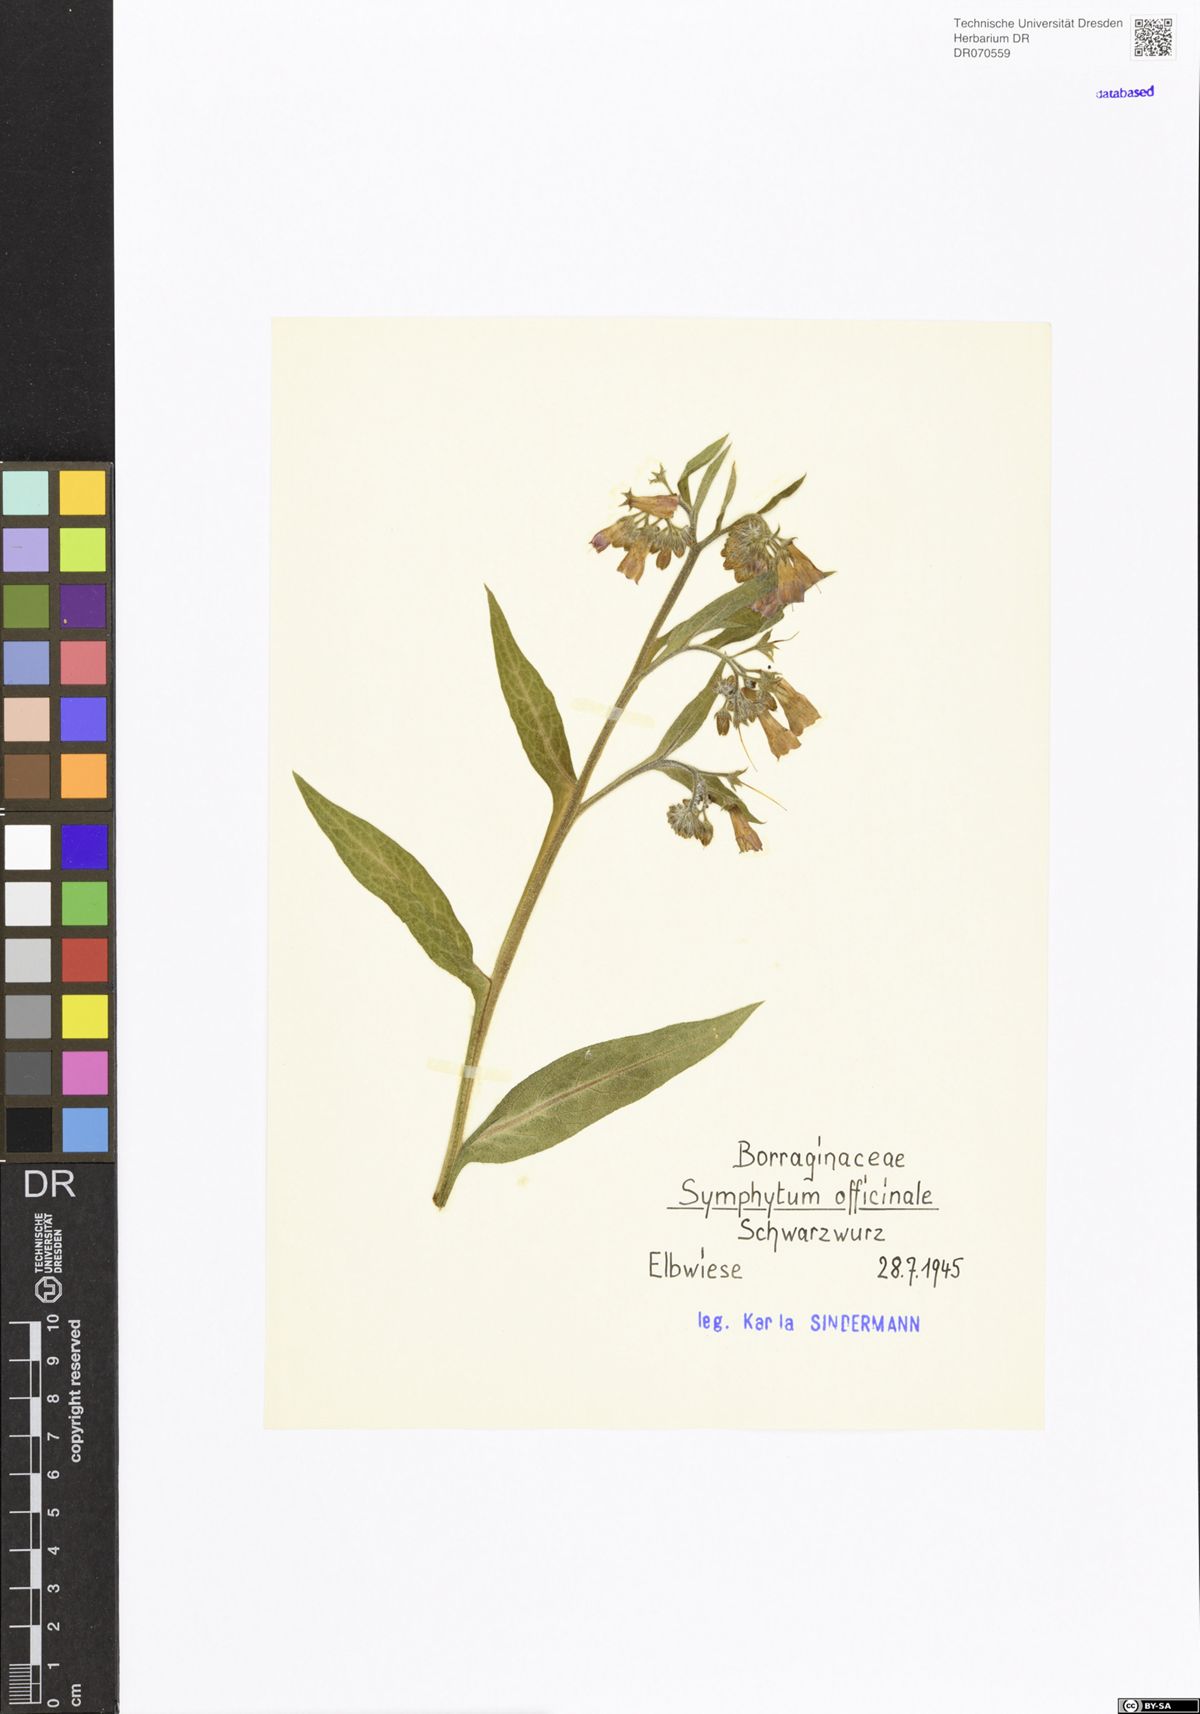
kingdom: Plantae
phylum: Tracheophyta
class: Magnoliopsida
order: Boraginales
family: Boraginaceae
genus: Symphytum
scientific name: Symphytum officinale
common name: Common comfrey
